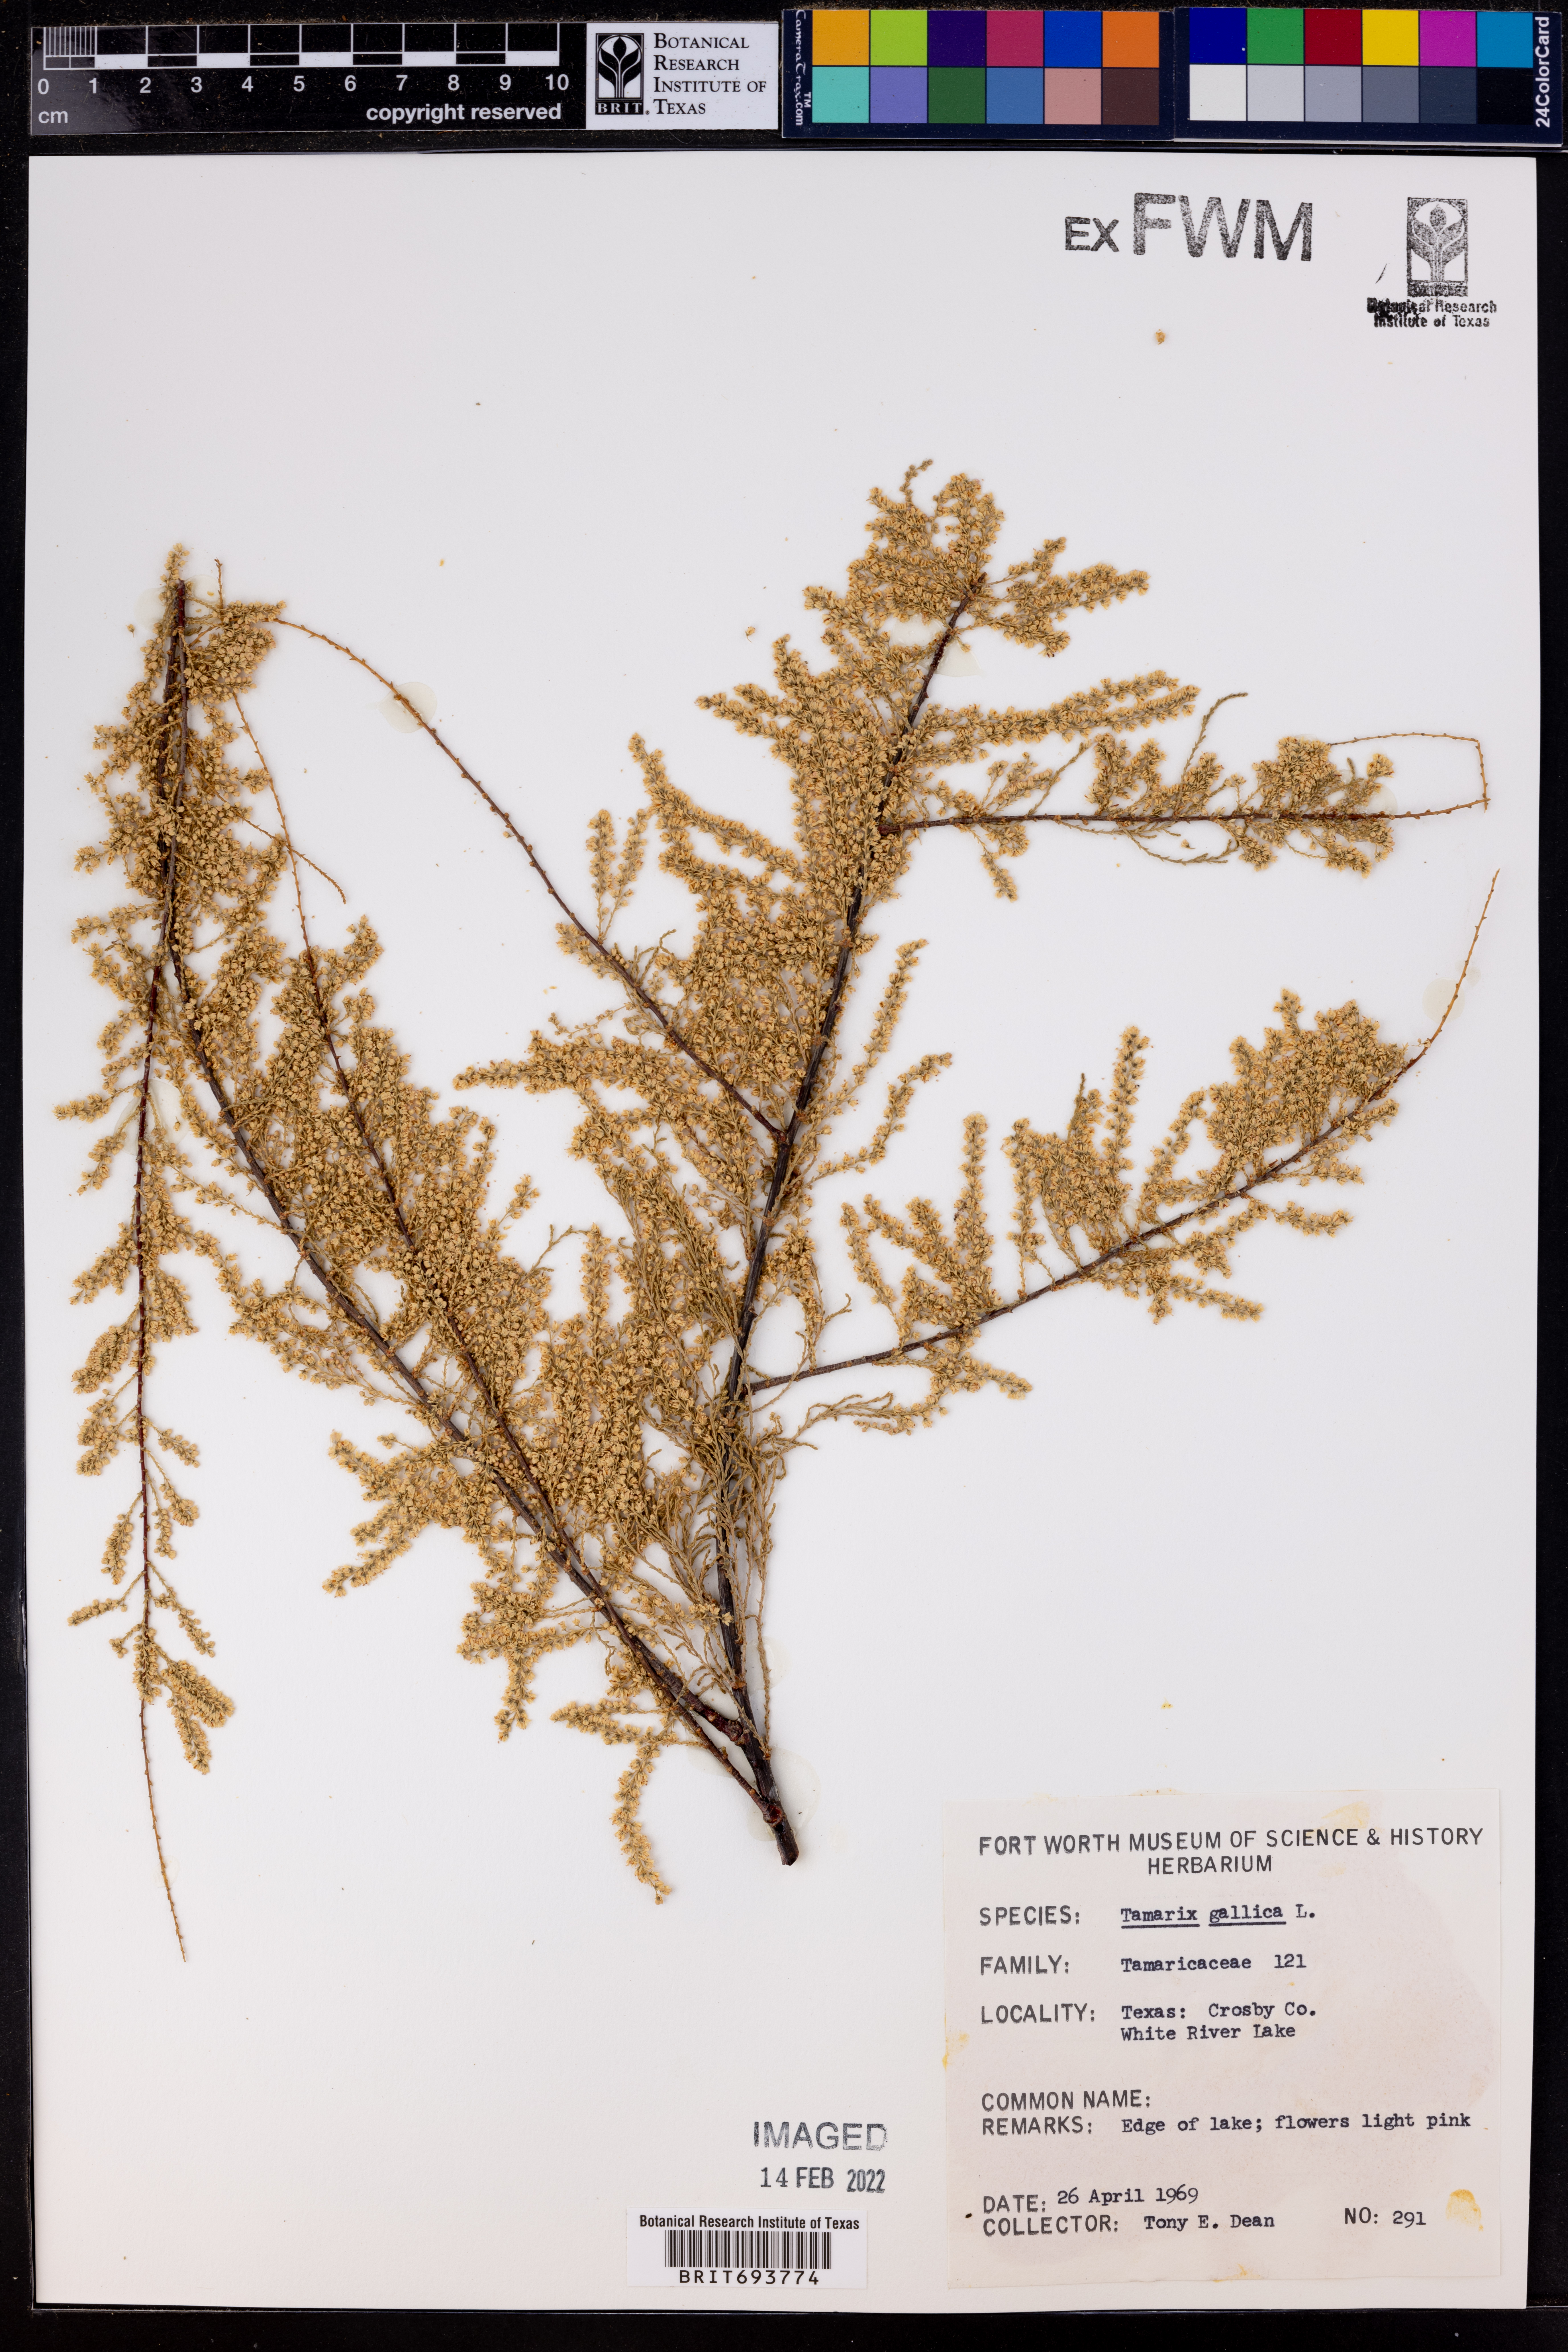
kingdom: Plantae
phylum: Tracheophyta
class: Magnoliopsida
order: Caryophyllales
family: Tamaricaceae
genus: Tamarix
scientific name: Tamarix gallica
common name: Tamarisk
